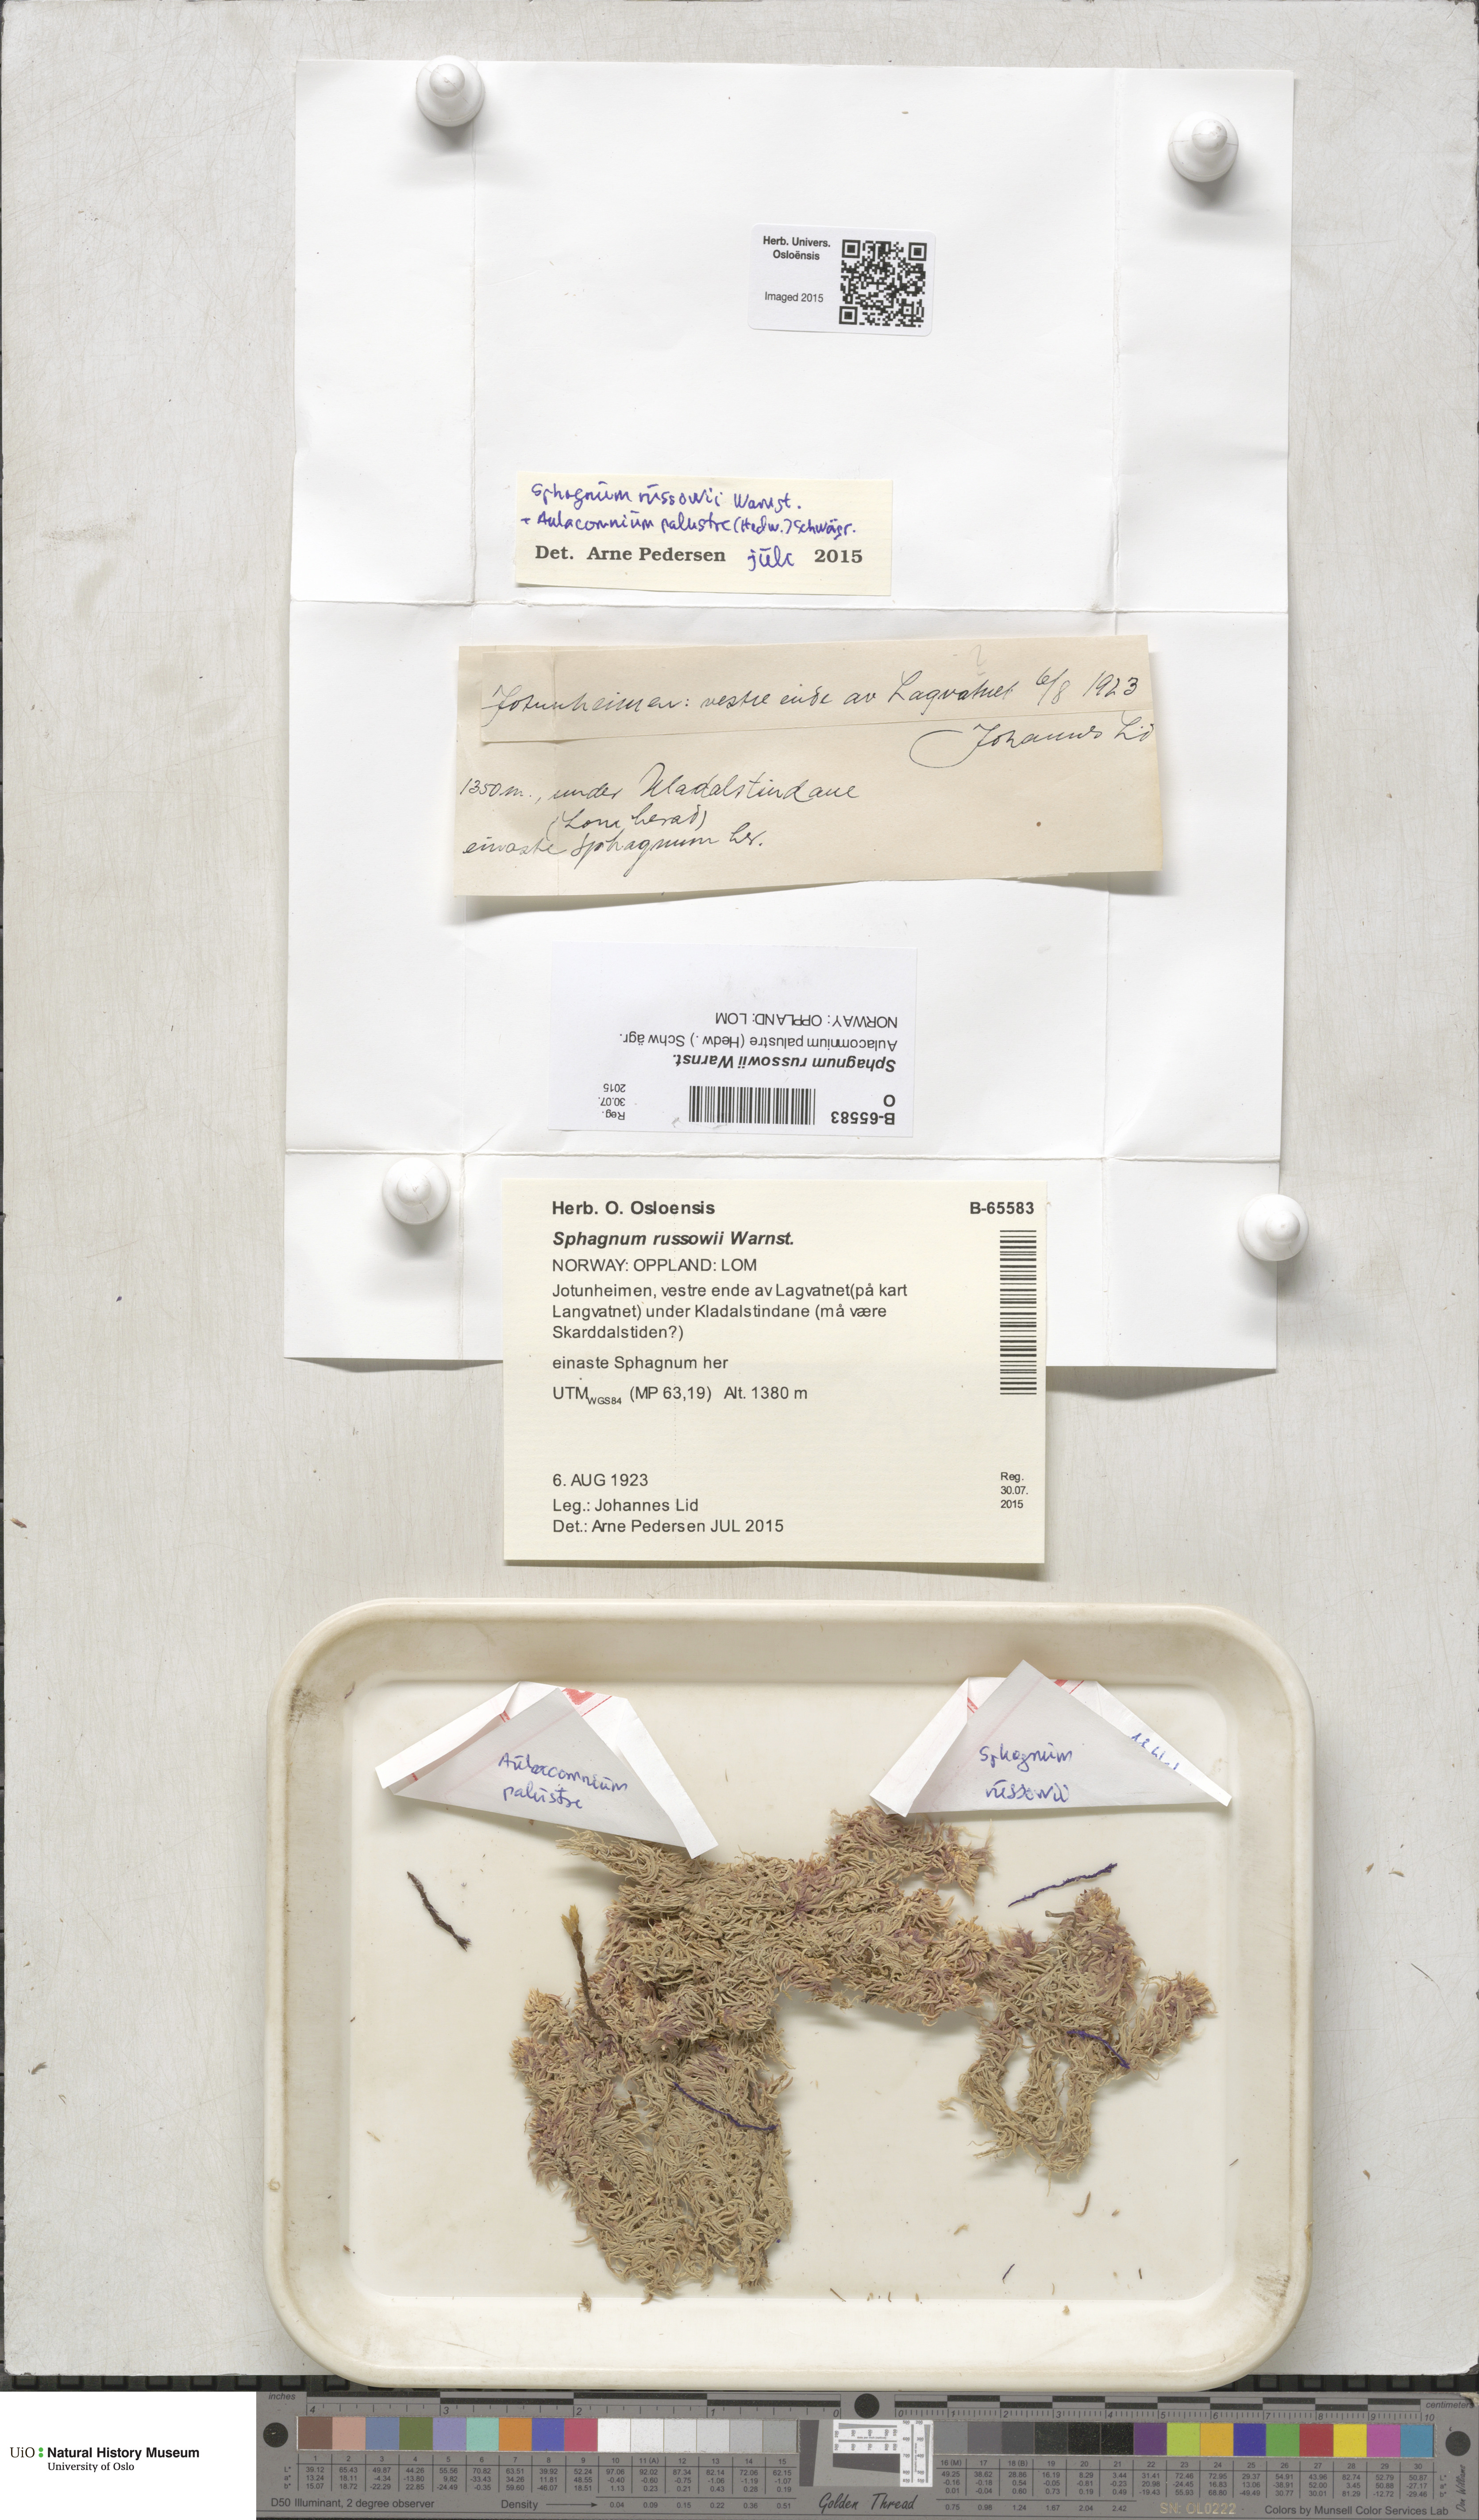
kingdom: Plantae
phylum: Bryophyta
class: Sphagnopsida
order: Sphagnales
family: Sphagnaceae
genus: Sphagnum
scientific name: Sphagnum russowii
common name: Russow's peat moss
